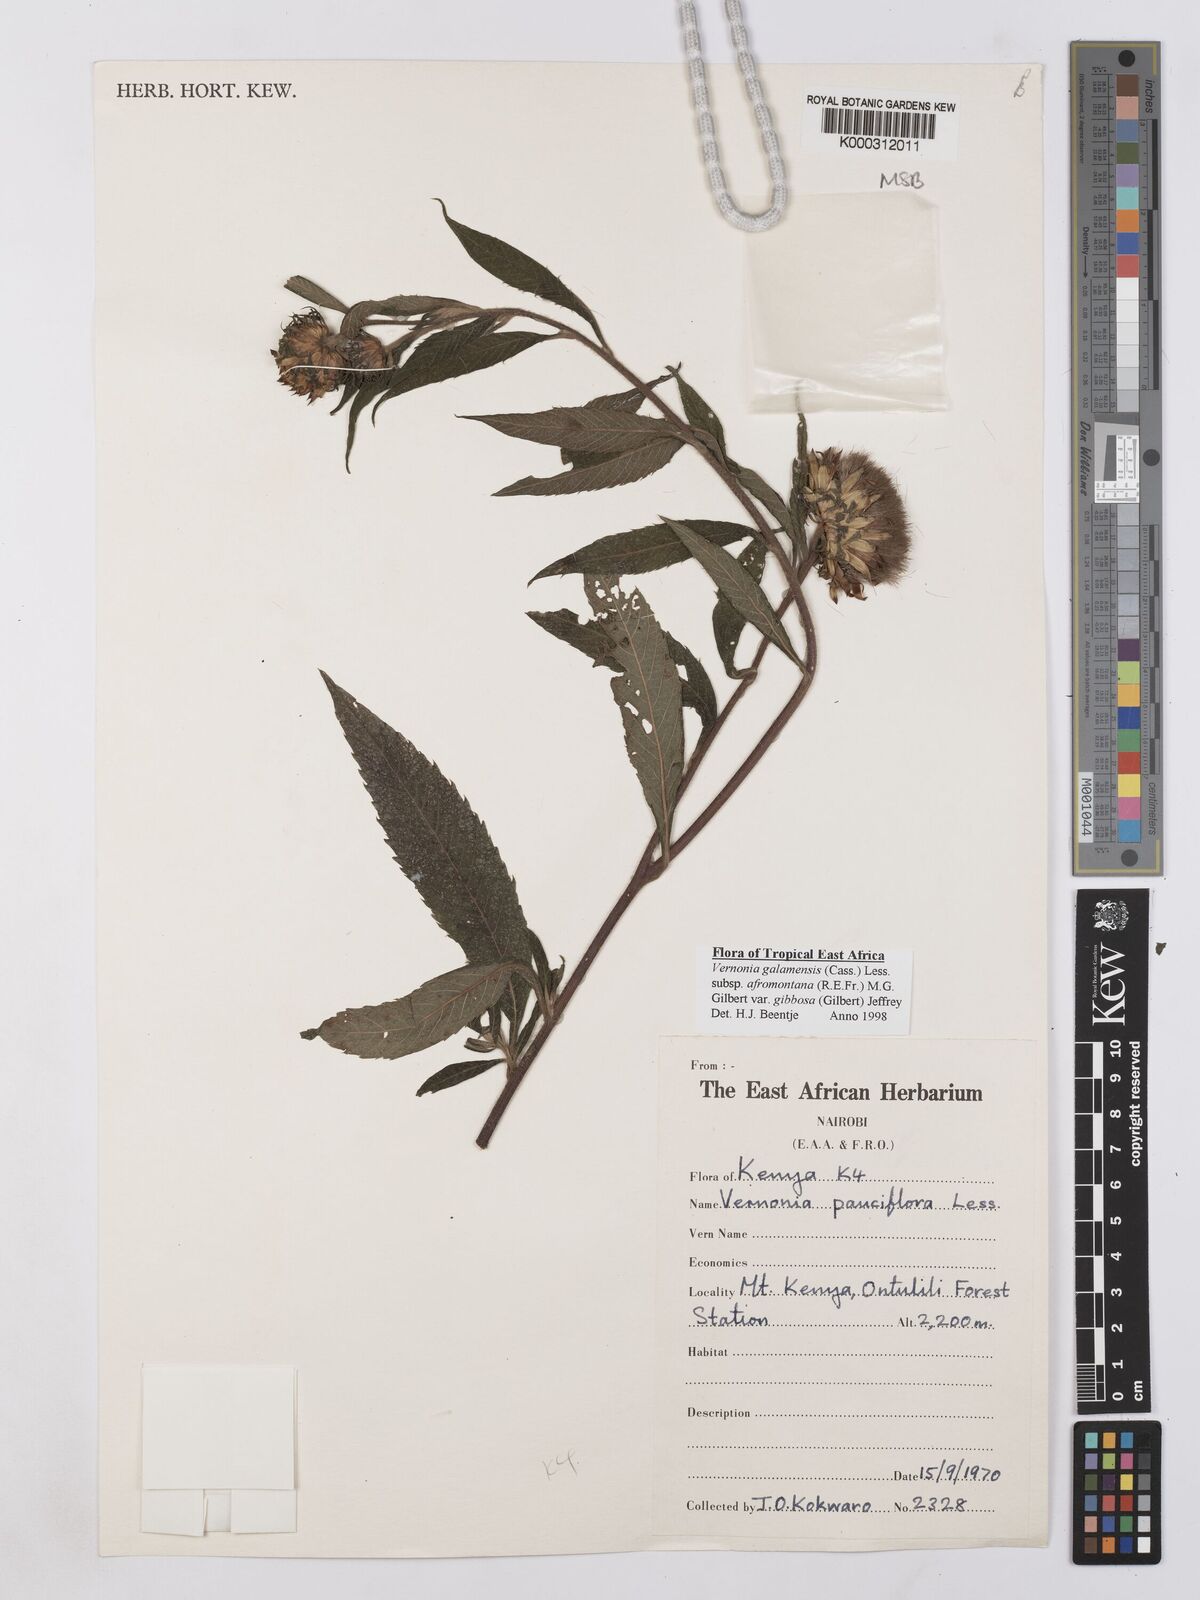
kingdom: Plantae
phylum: Tracheophyta
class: Magnoliopsida
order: Asterales
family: Asteraceae
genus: Vernonia
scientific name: Vernonia galamensis
